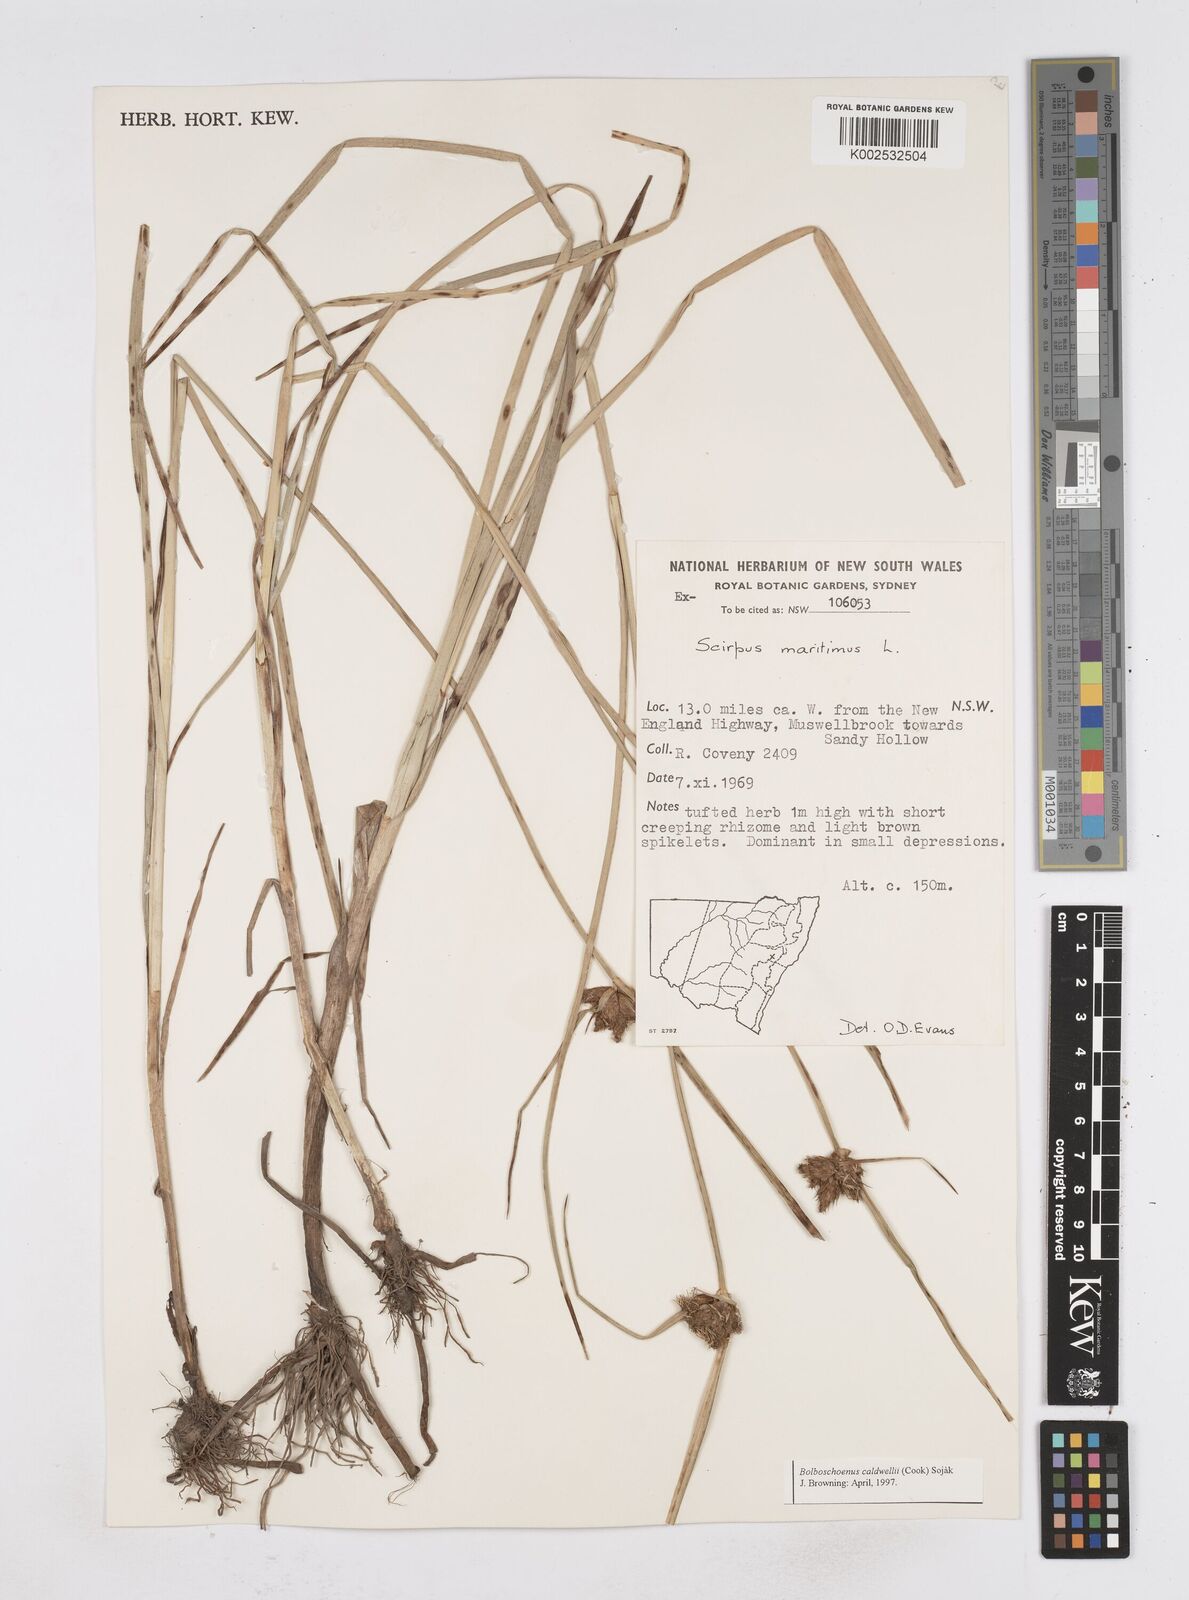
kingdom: Plantae
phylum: Tracheophyta
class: Liliopsida
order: Poales
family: Cyperaceae
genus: Bolboschoenus
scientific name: Bolboschoenus maritimus
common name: Sea club-rush
